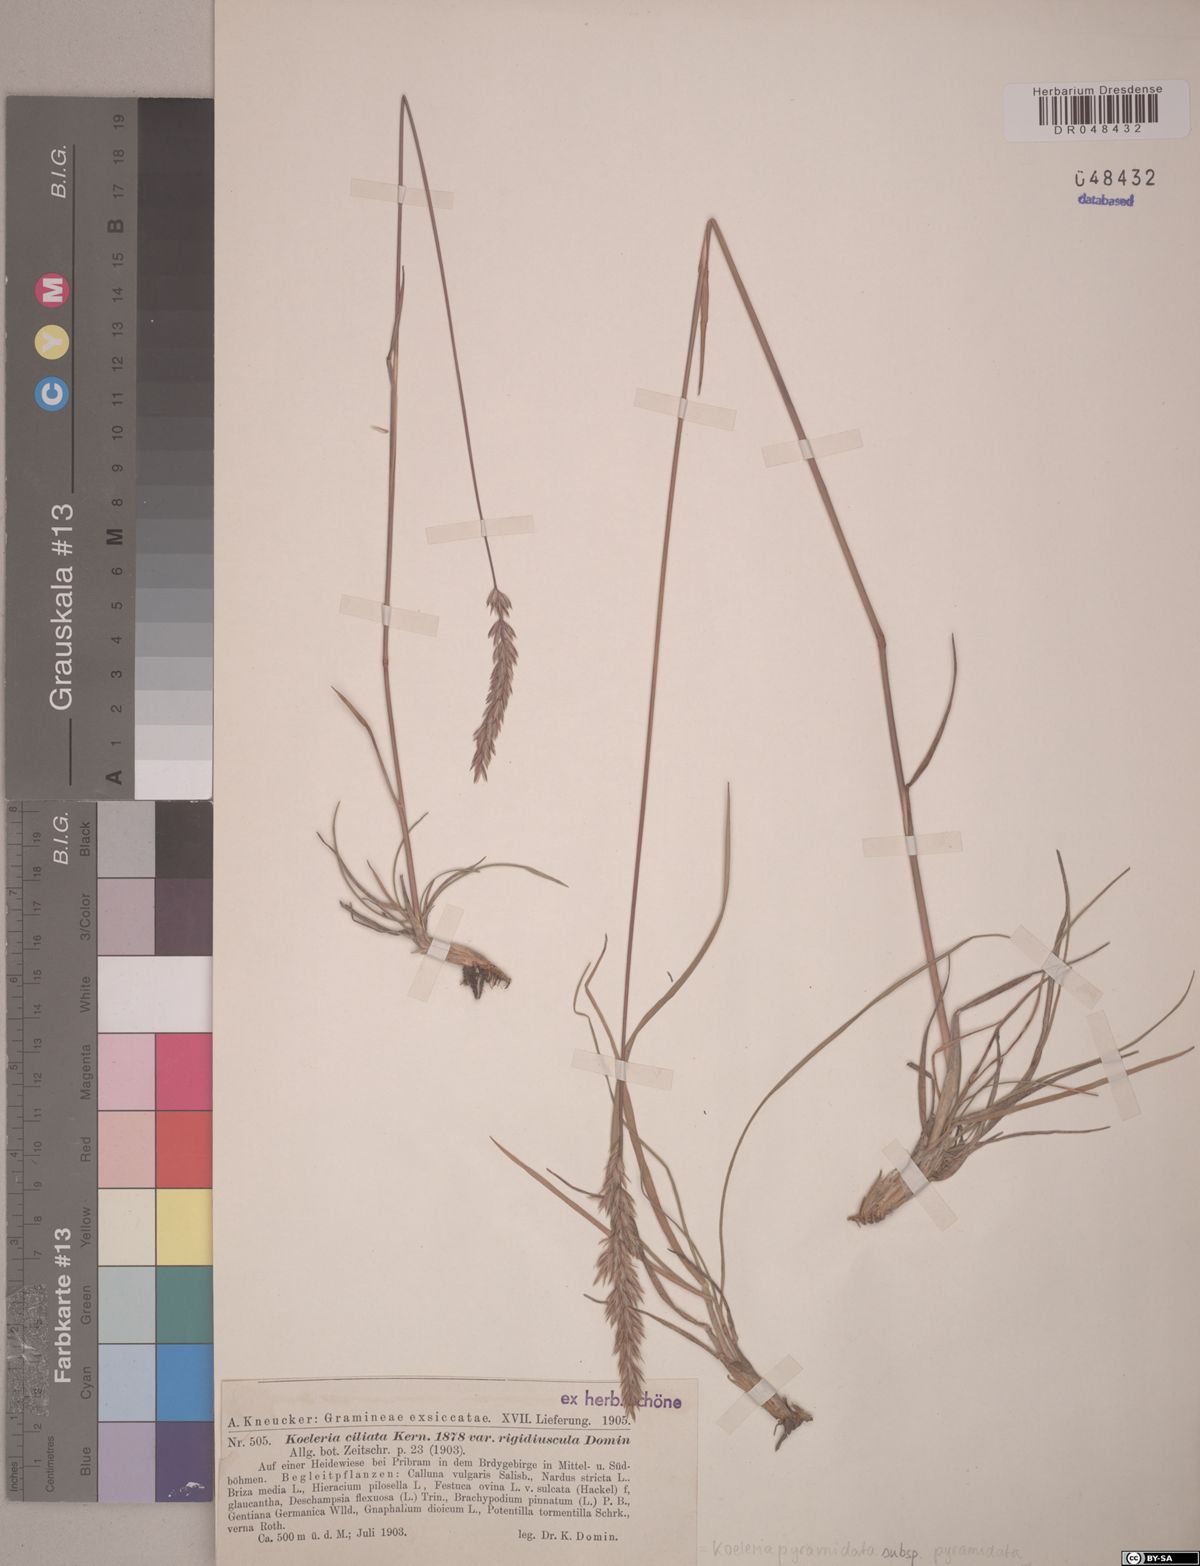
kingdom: Plantae
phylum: Tracheophyta
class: Liliopsida
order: Poales
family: Poaceae
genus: Koeleria
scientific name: Koeleria pyramidata
